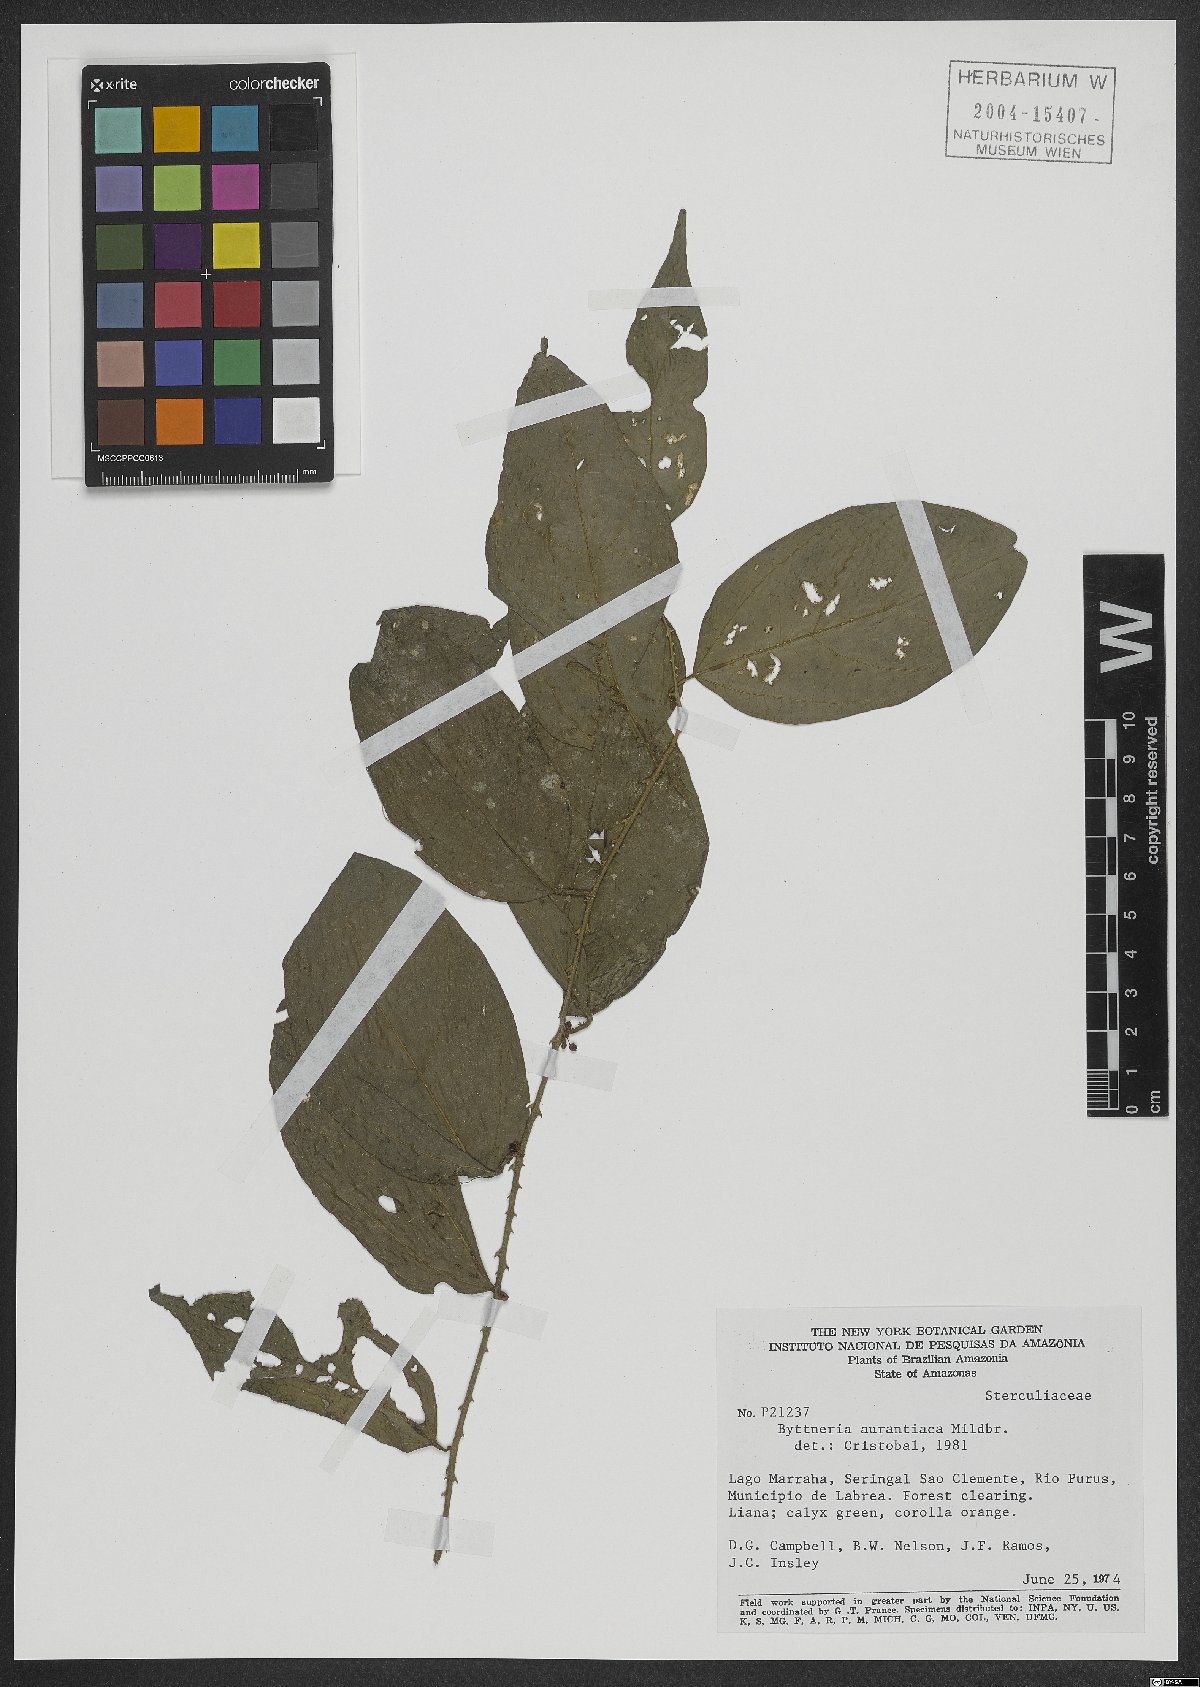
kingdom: Plantae
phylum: Tracheophyta
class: Magnoliopsida
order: Malvales
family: Malvaceae
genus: Byttneria
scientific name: Byttneria aurantiaca
